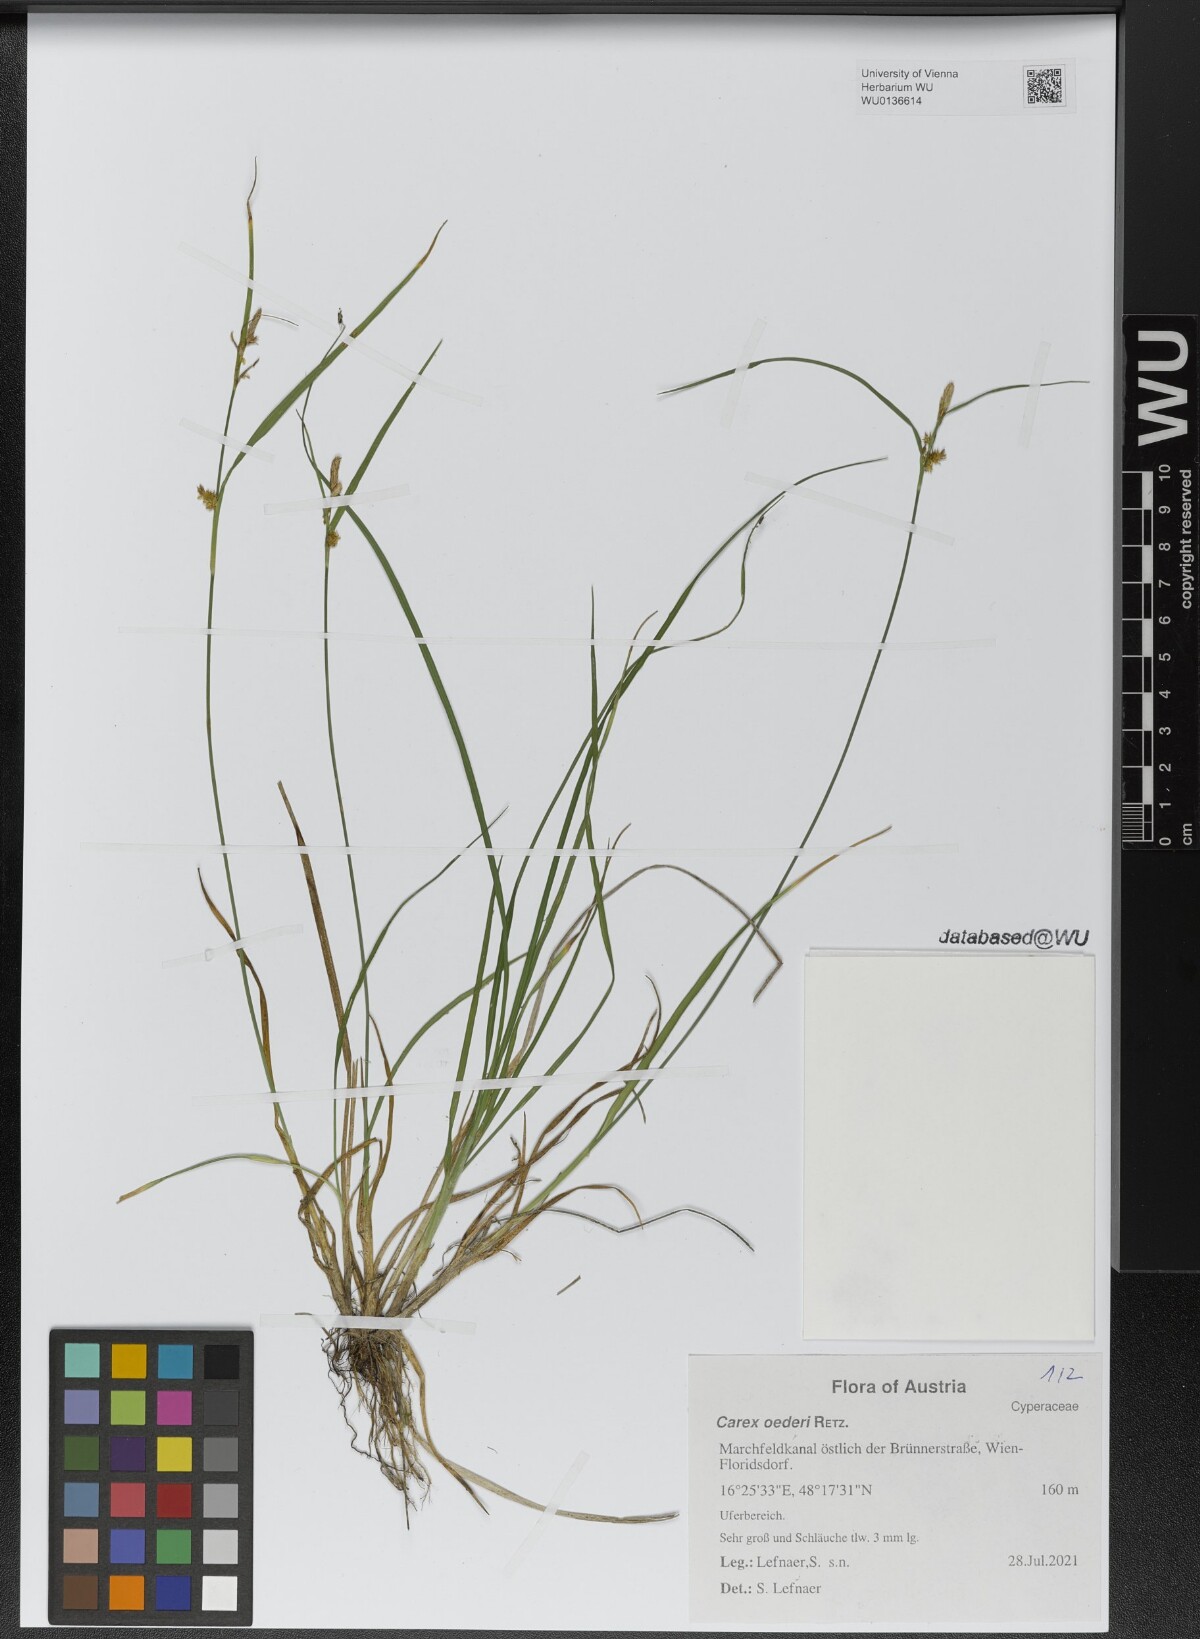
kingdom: Plantae
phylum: Tracheophyta
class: Liliopsida
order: Poales
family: Cyperaceae
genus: Carex
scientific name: Carex oederi
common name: Common & small-fruited yellow-sedge
